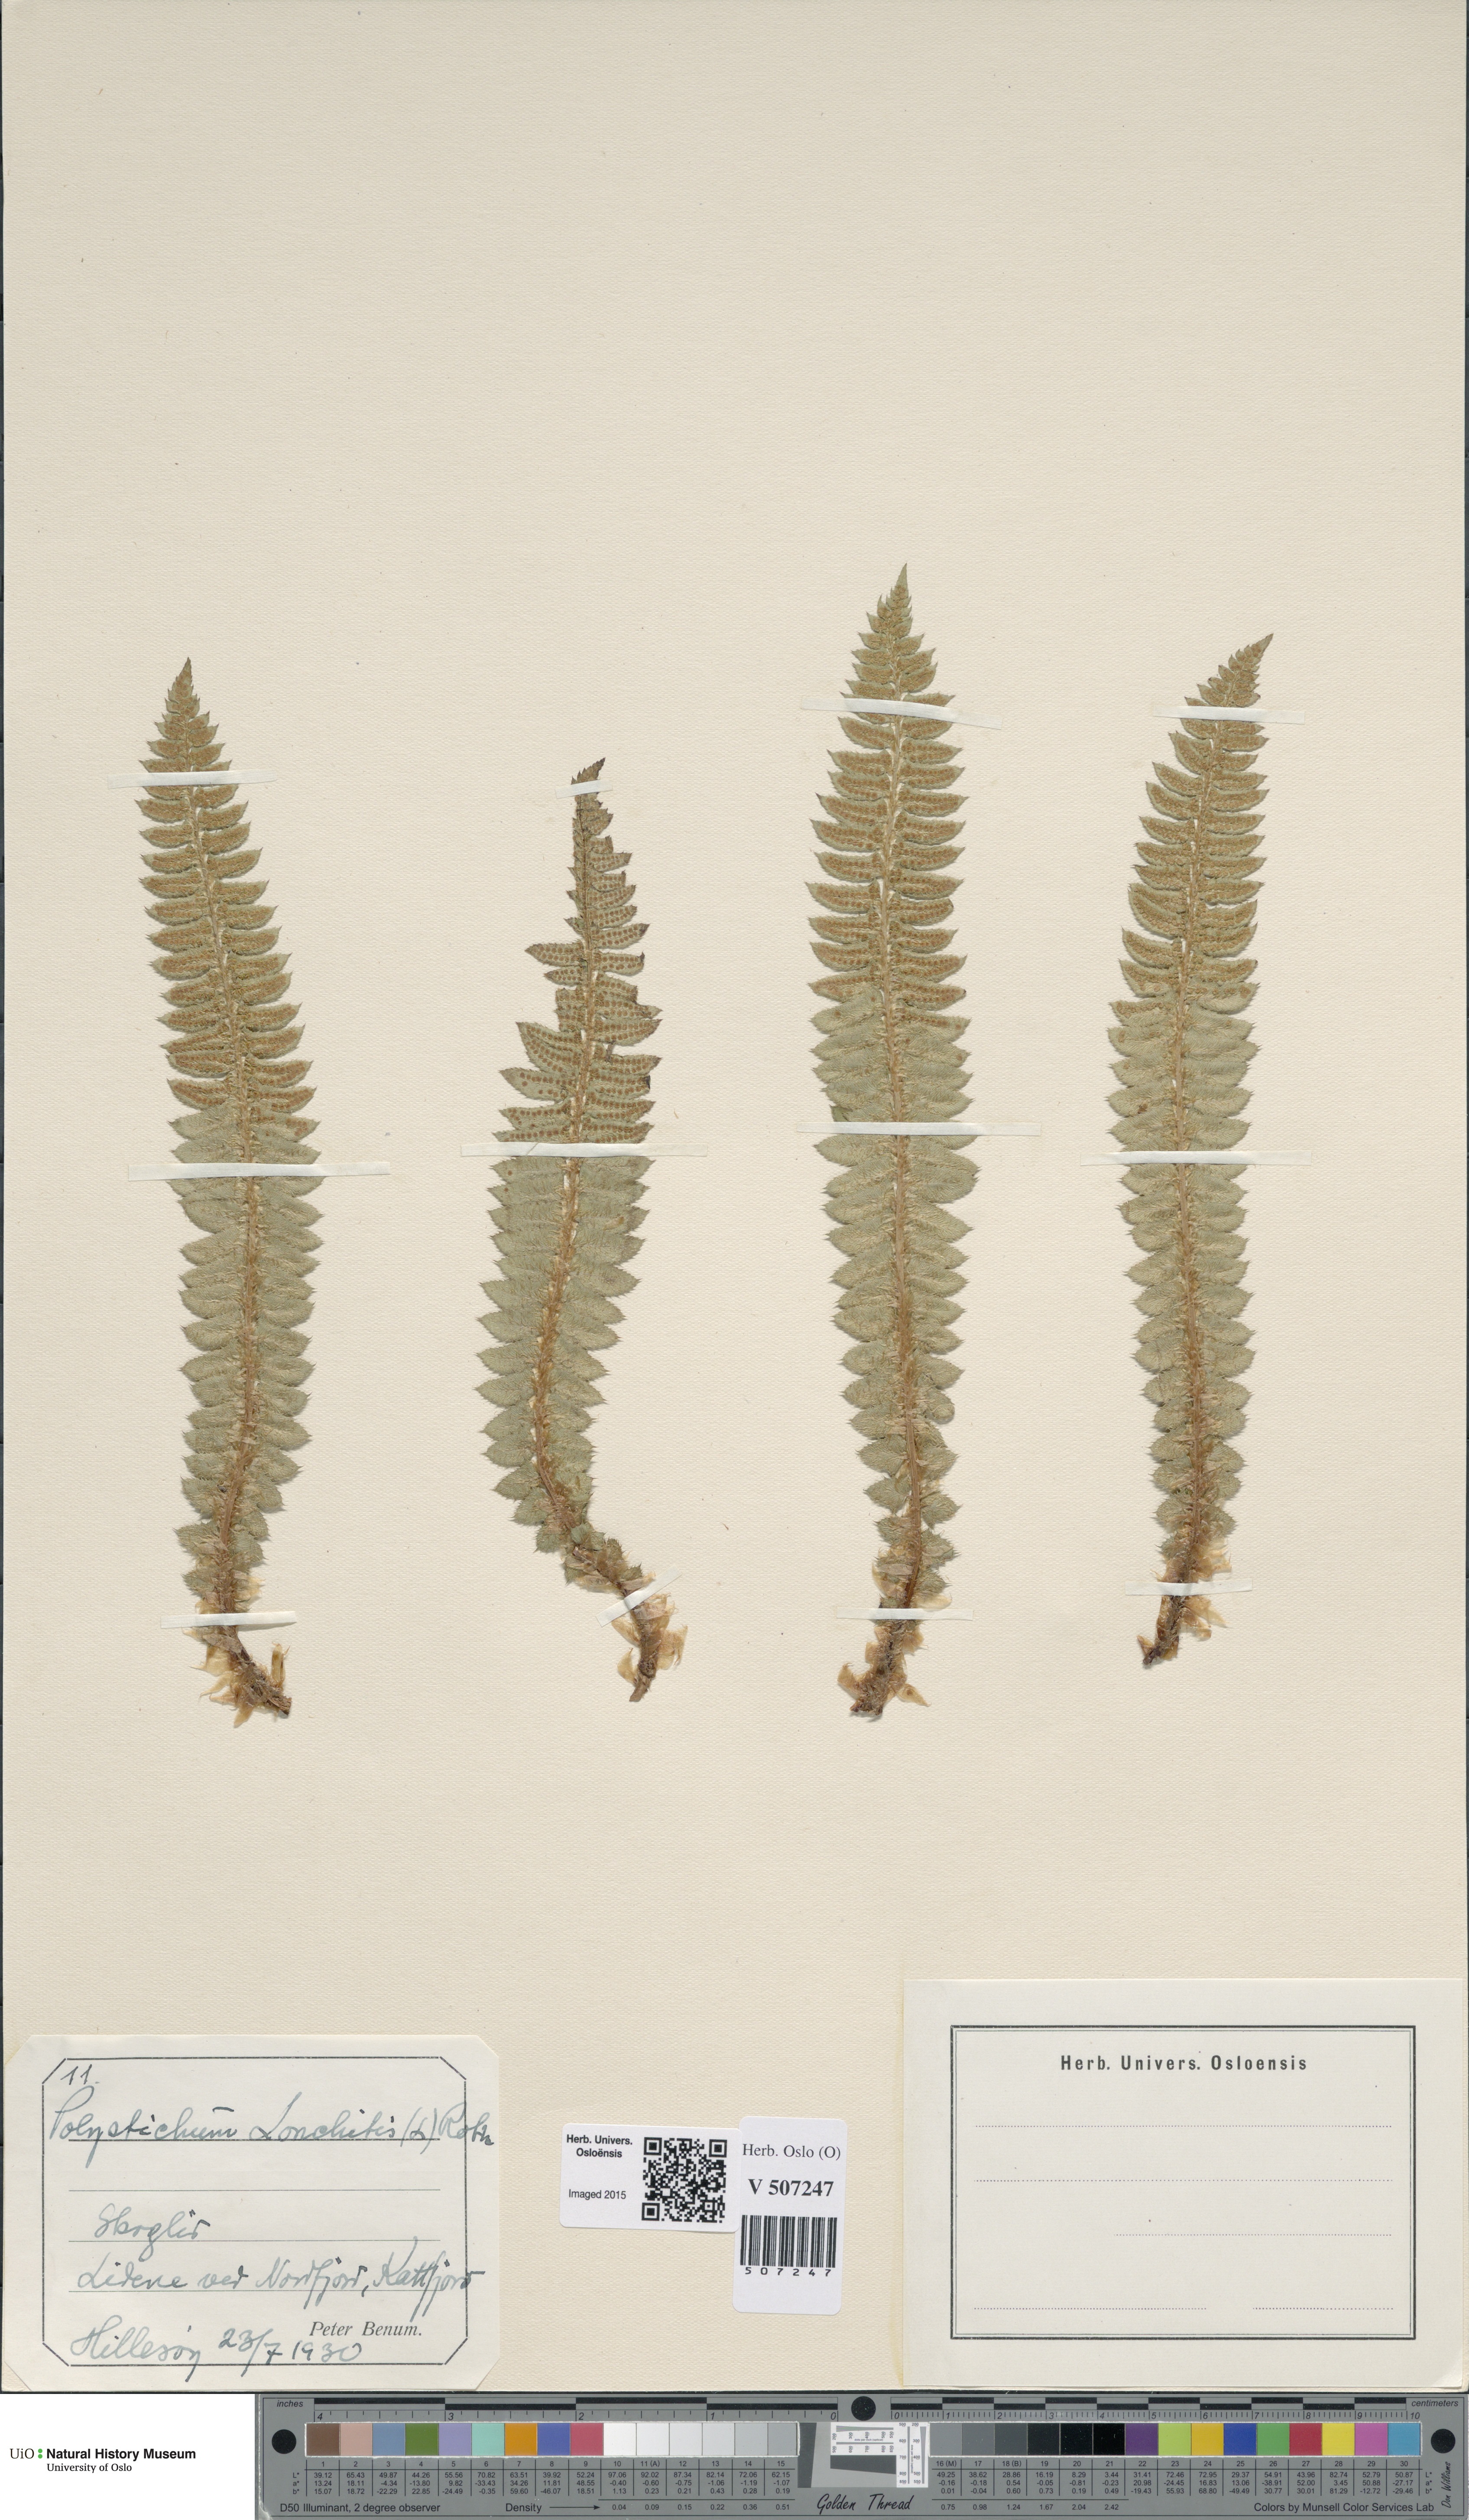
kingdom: Plantae
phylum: Tracheophyta
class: Polypodiopsida
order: Polypodiales
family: Dryopteridaceae
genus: Polystichum
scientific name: Polystichum lonchitis
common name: Holly fern
